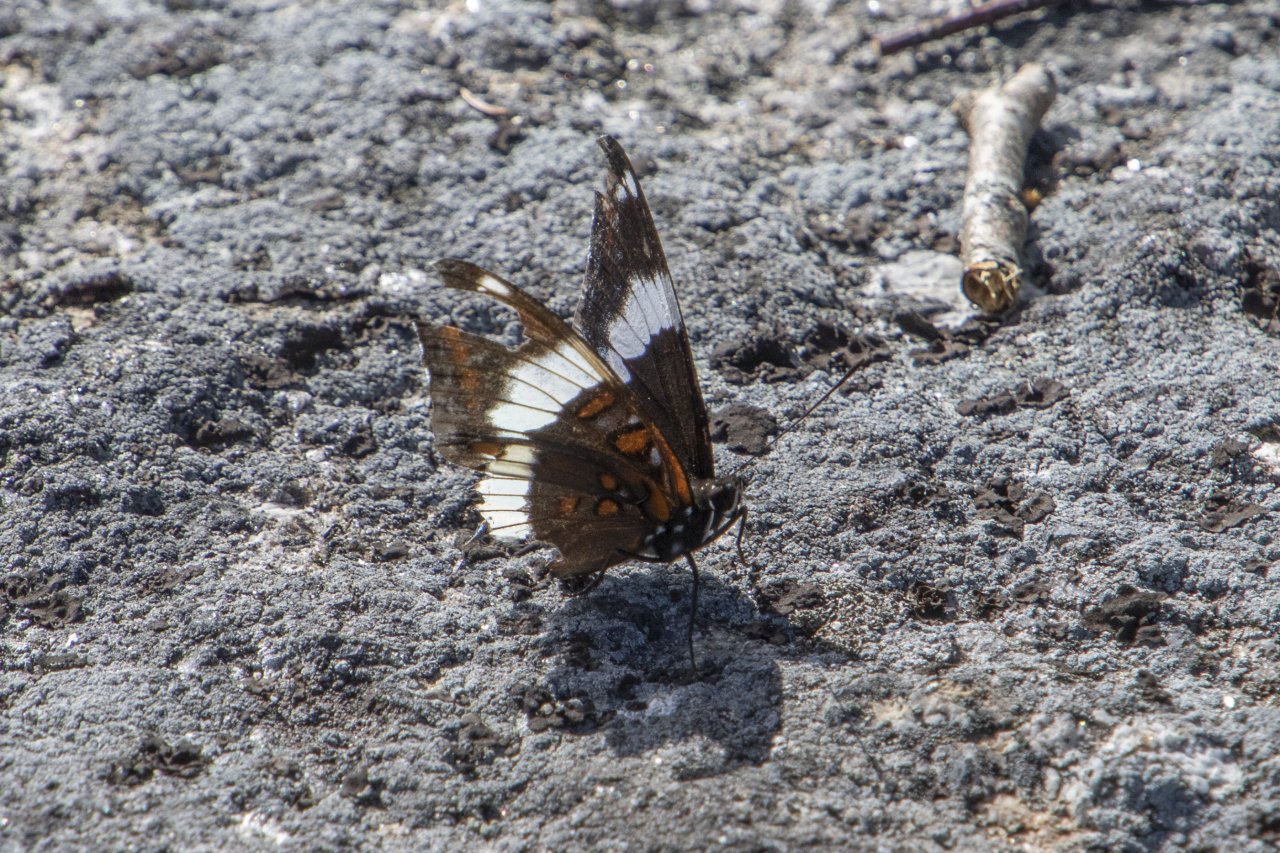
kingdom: Animalia
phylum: Arthropoda
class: Insecta
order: Lepidoptera
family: Nymphalidae
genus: Limenitis
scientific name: Limenitis arthemis
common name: Red-spotted Admiral
